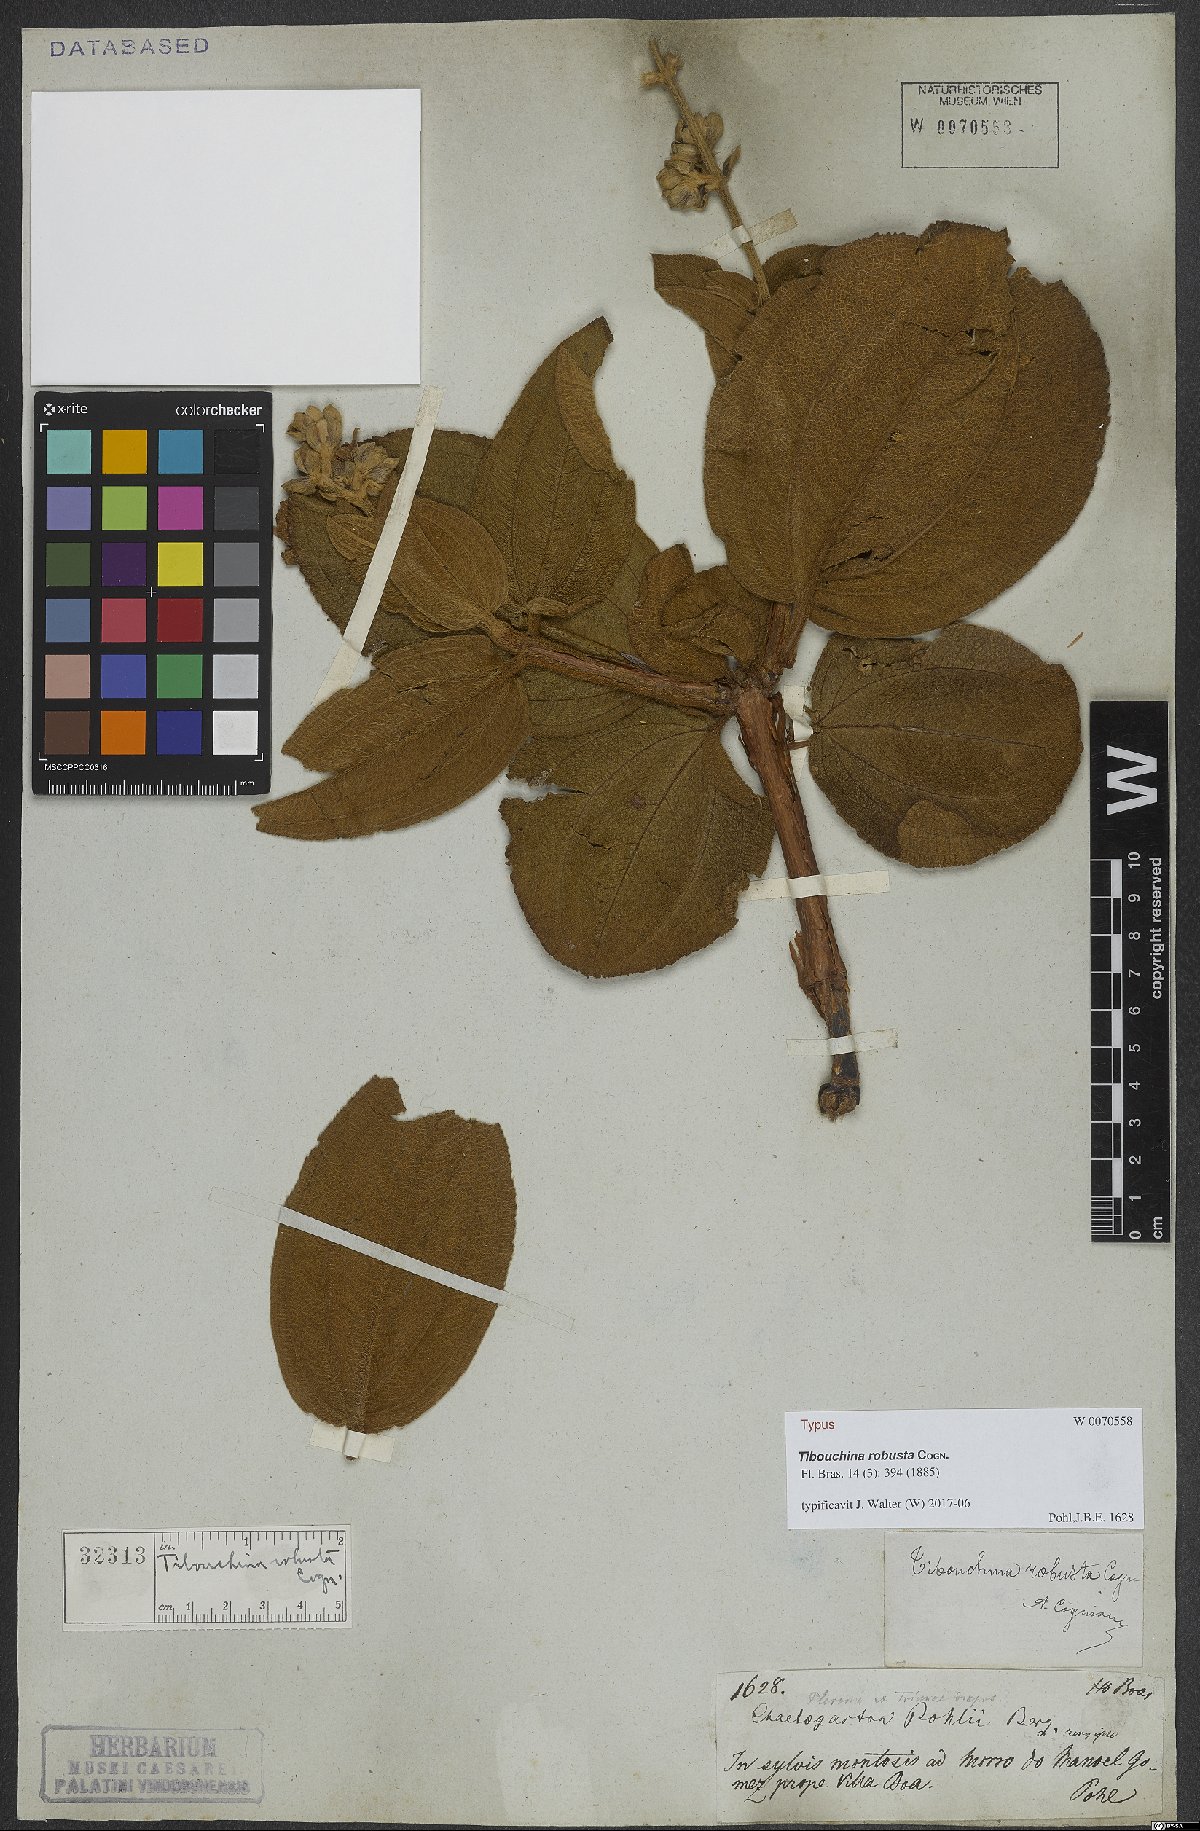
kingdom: Plantae
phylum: Tracheophyta
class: Magnoliopsida
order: Myrtales
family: Melastomataceae
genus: Pleroma
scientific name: Pleroma robustum
